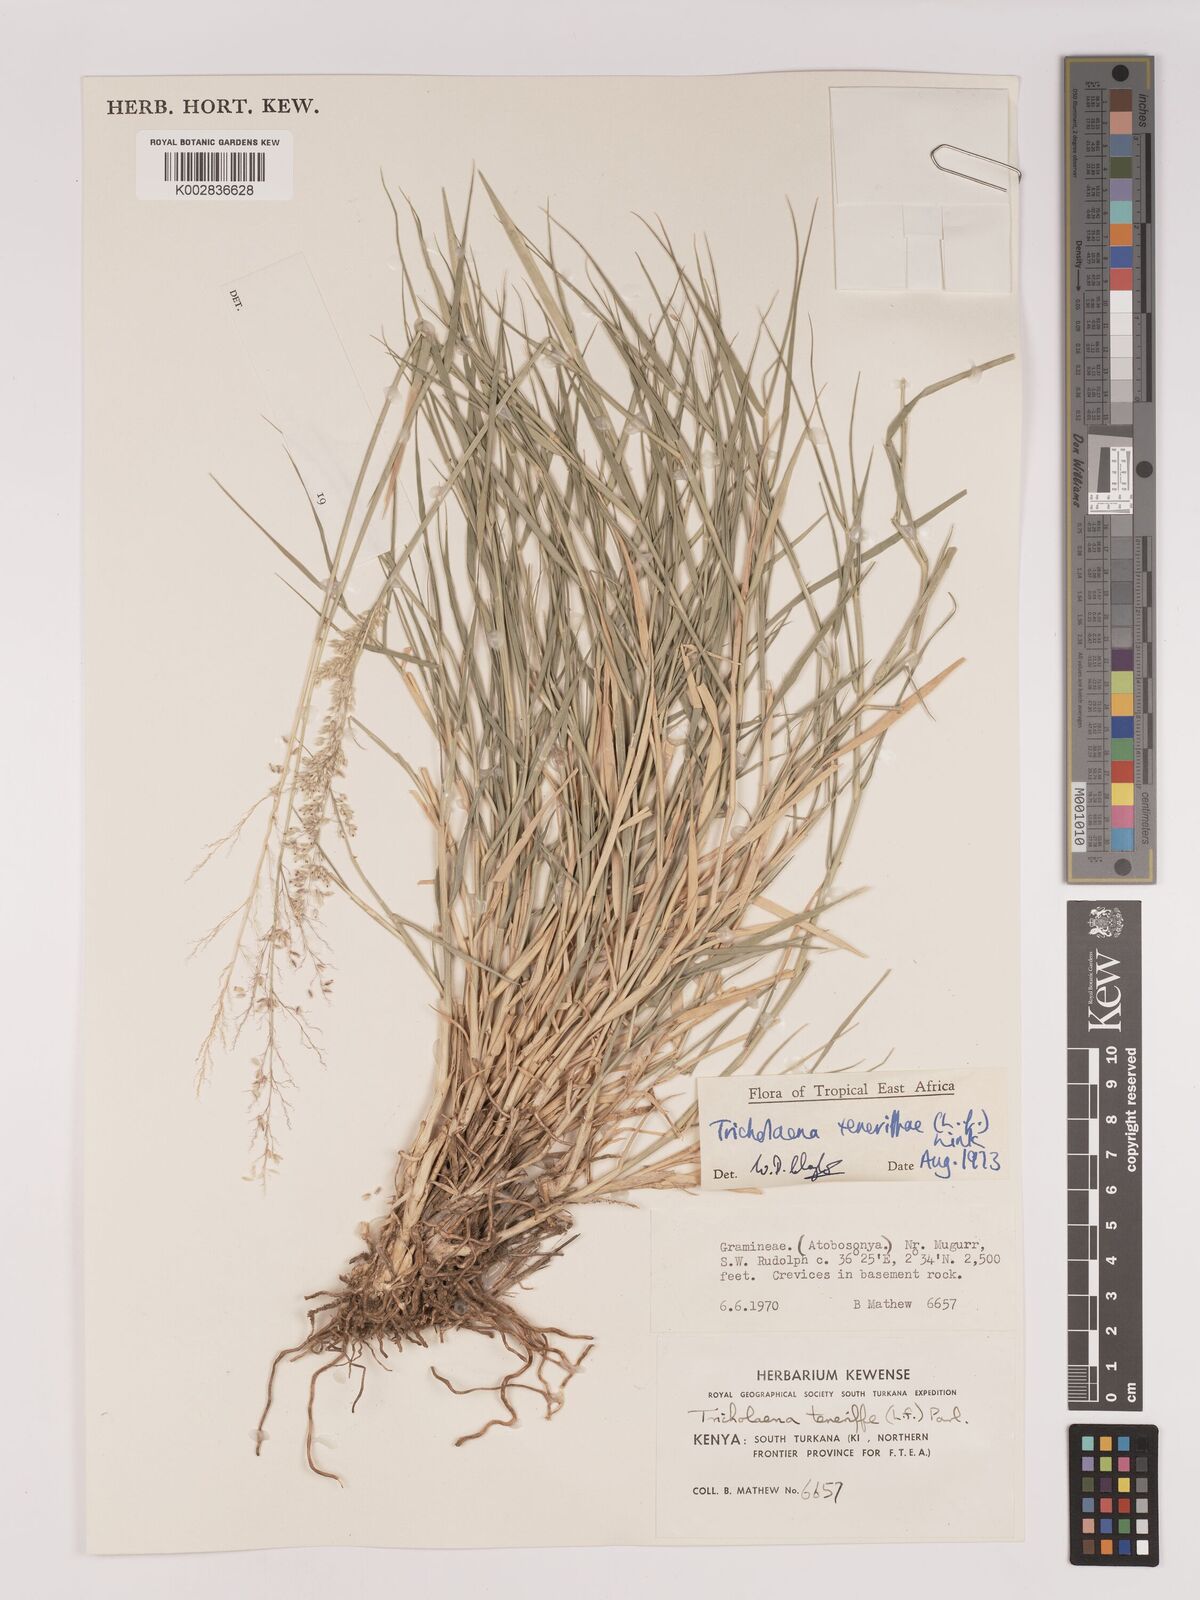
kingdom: Plantae
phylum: Tracheophyta
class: Liliopsida
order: Poales
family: Poaceae
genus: Tricholaena
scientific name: Tricholaena teneriffae
